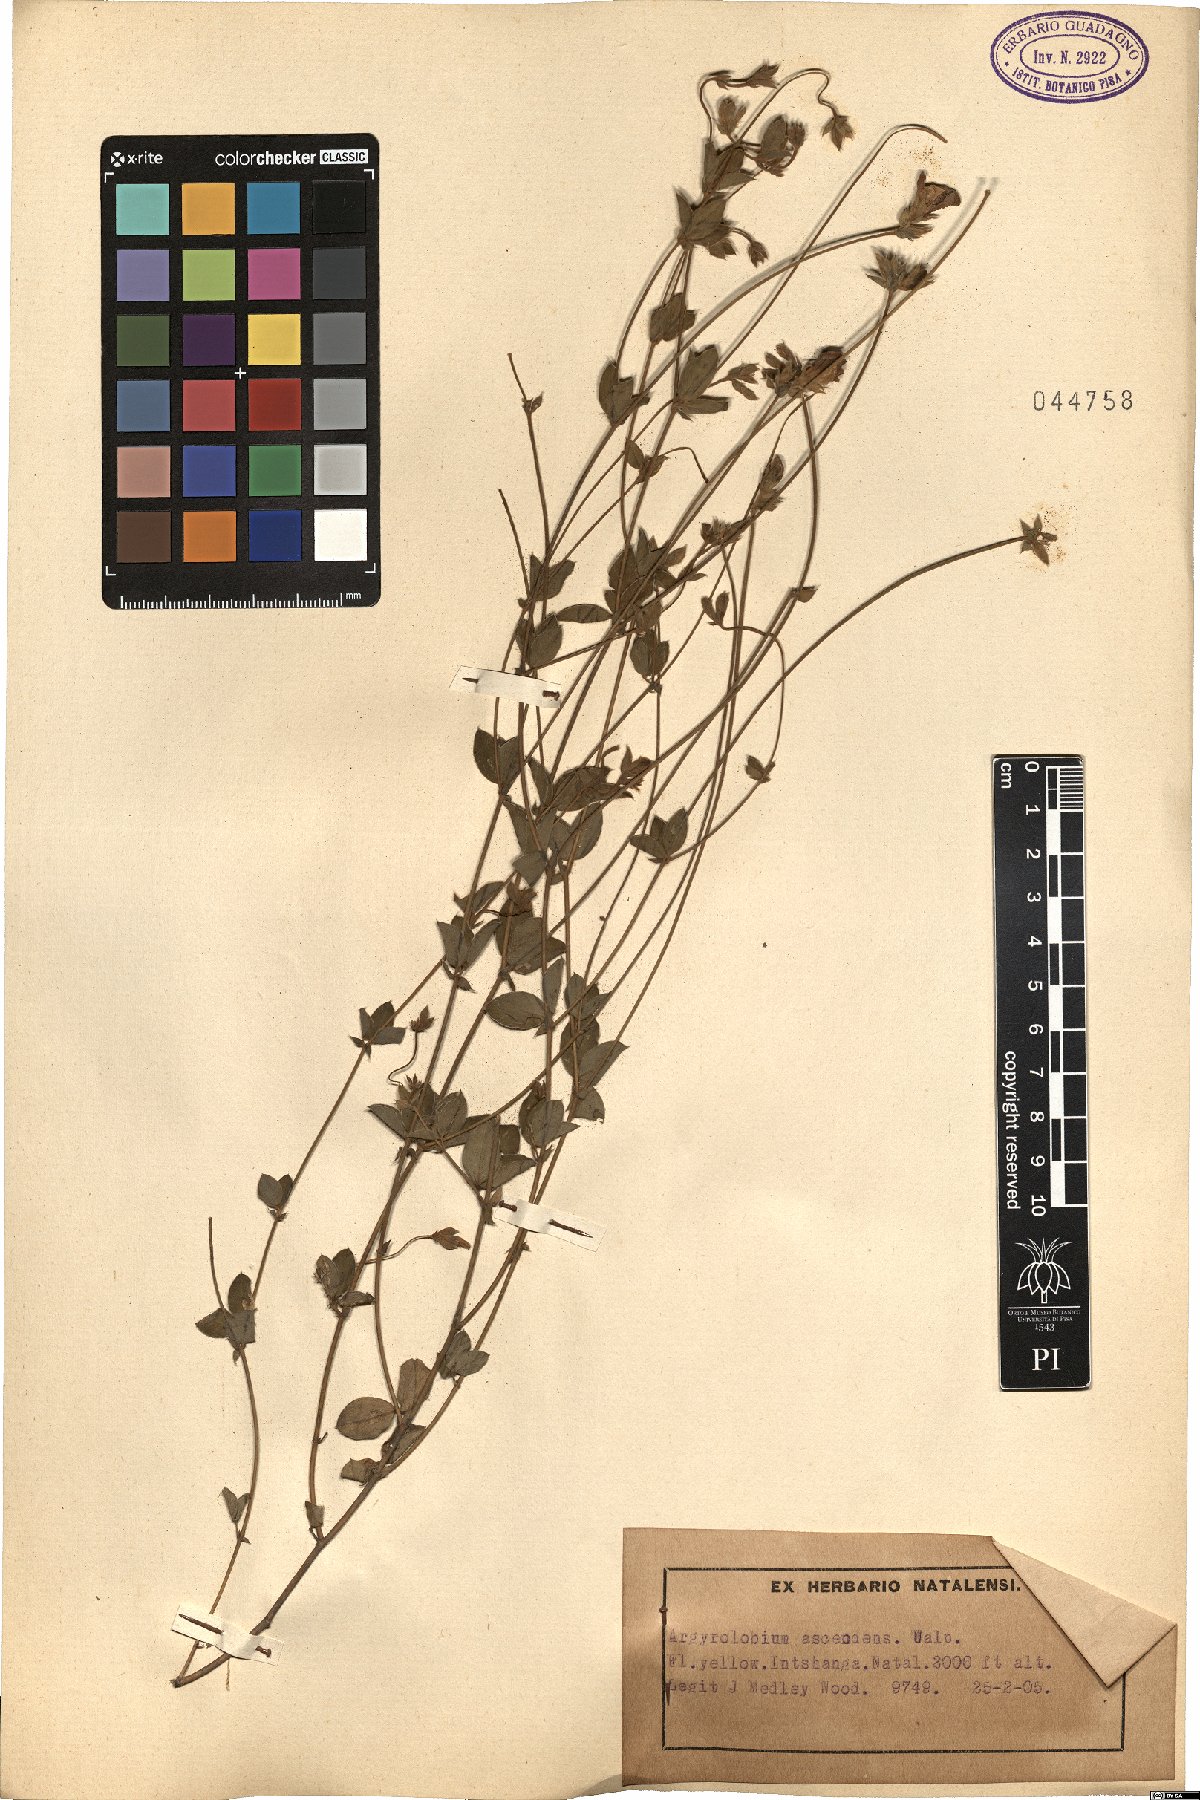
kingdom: Plantae
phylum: Tracheophyta
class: Magnoliopsida
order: Fabales
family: Fabaceae
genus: Argyrolobium
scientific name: Argyrolobium ascendens
